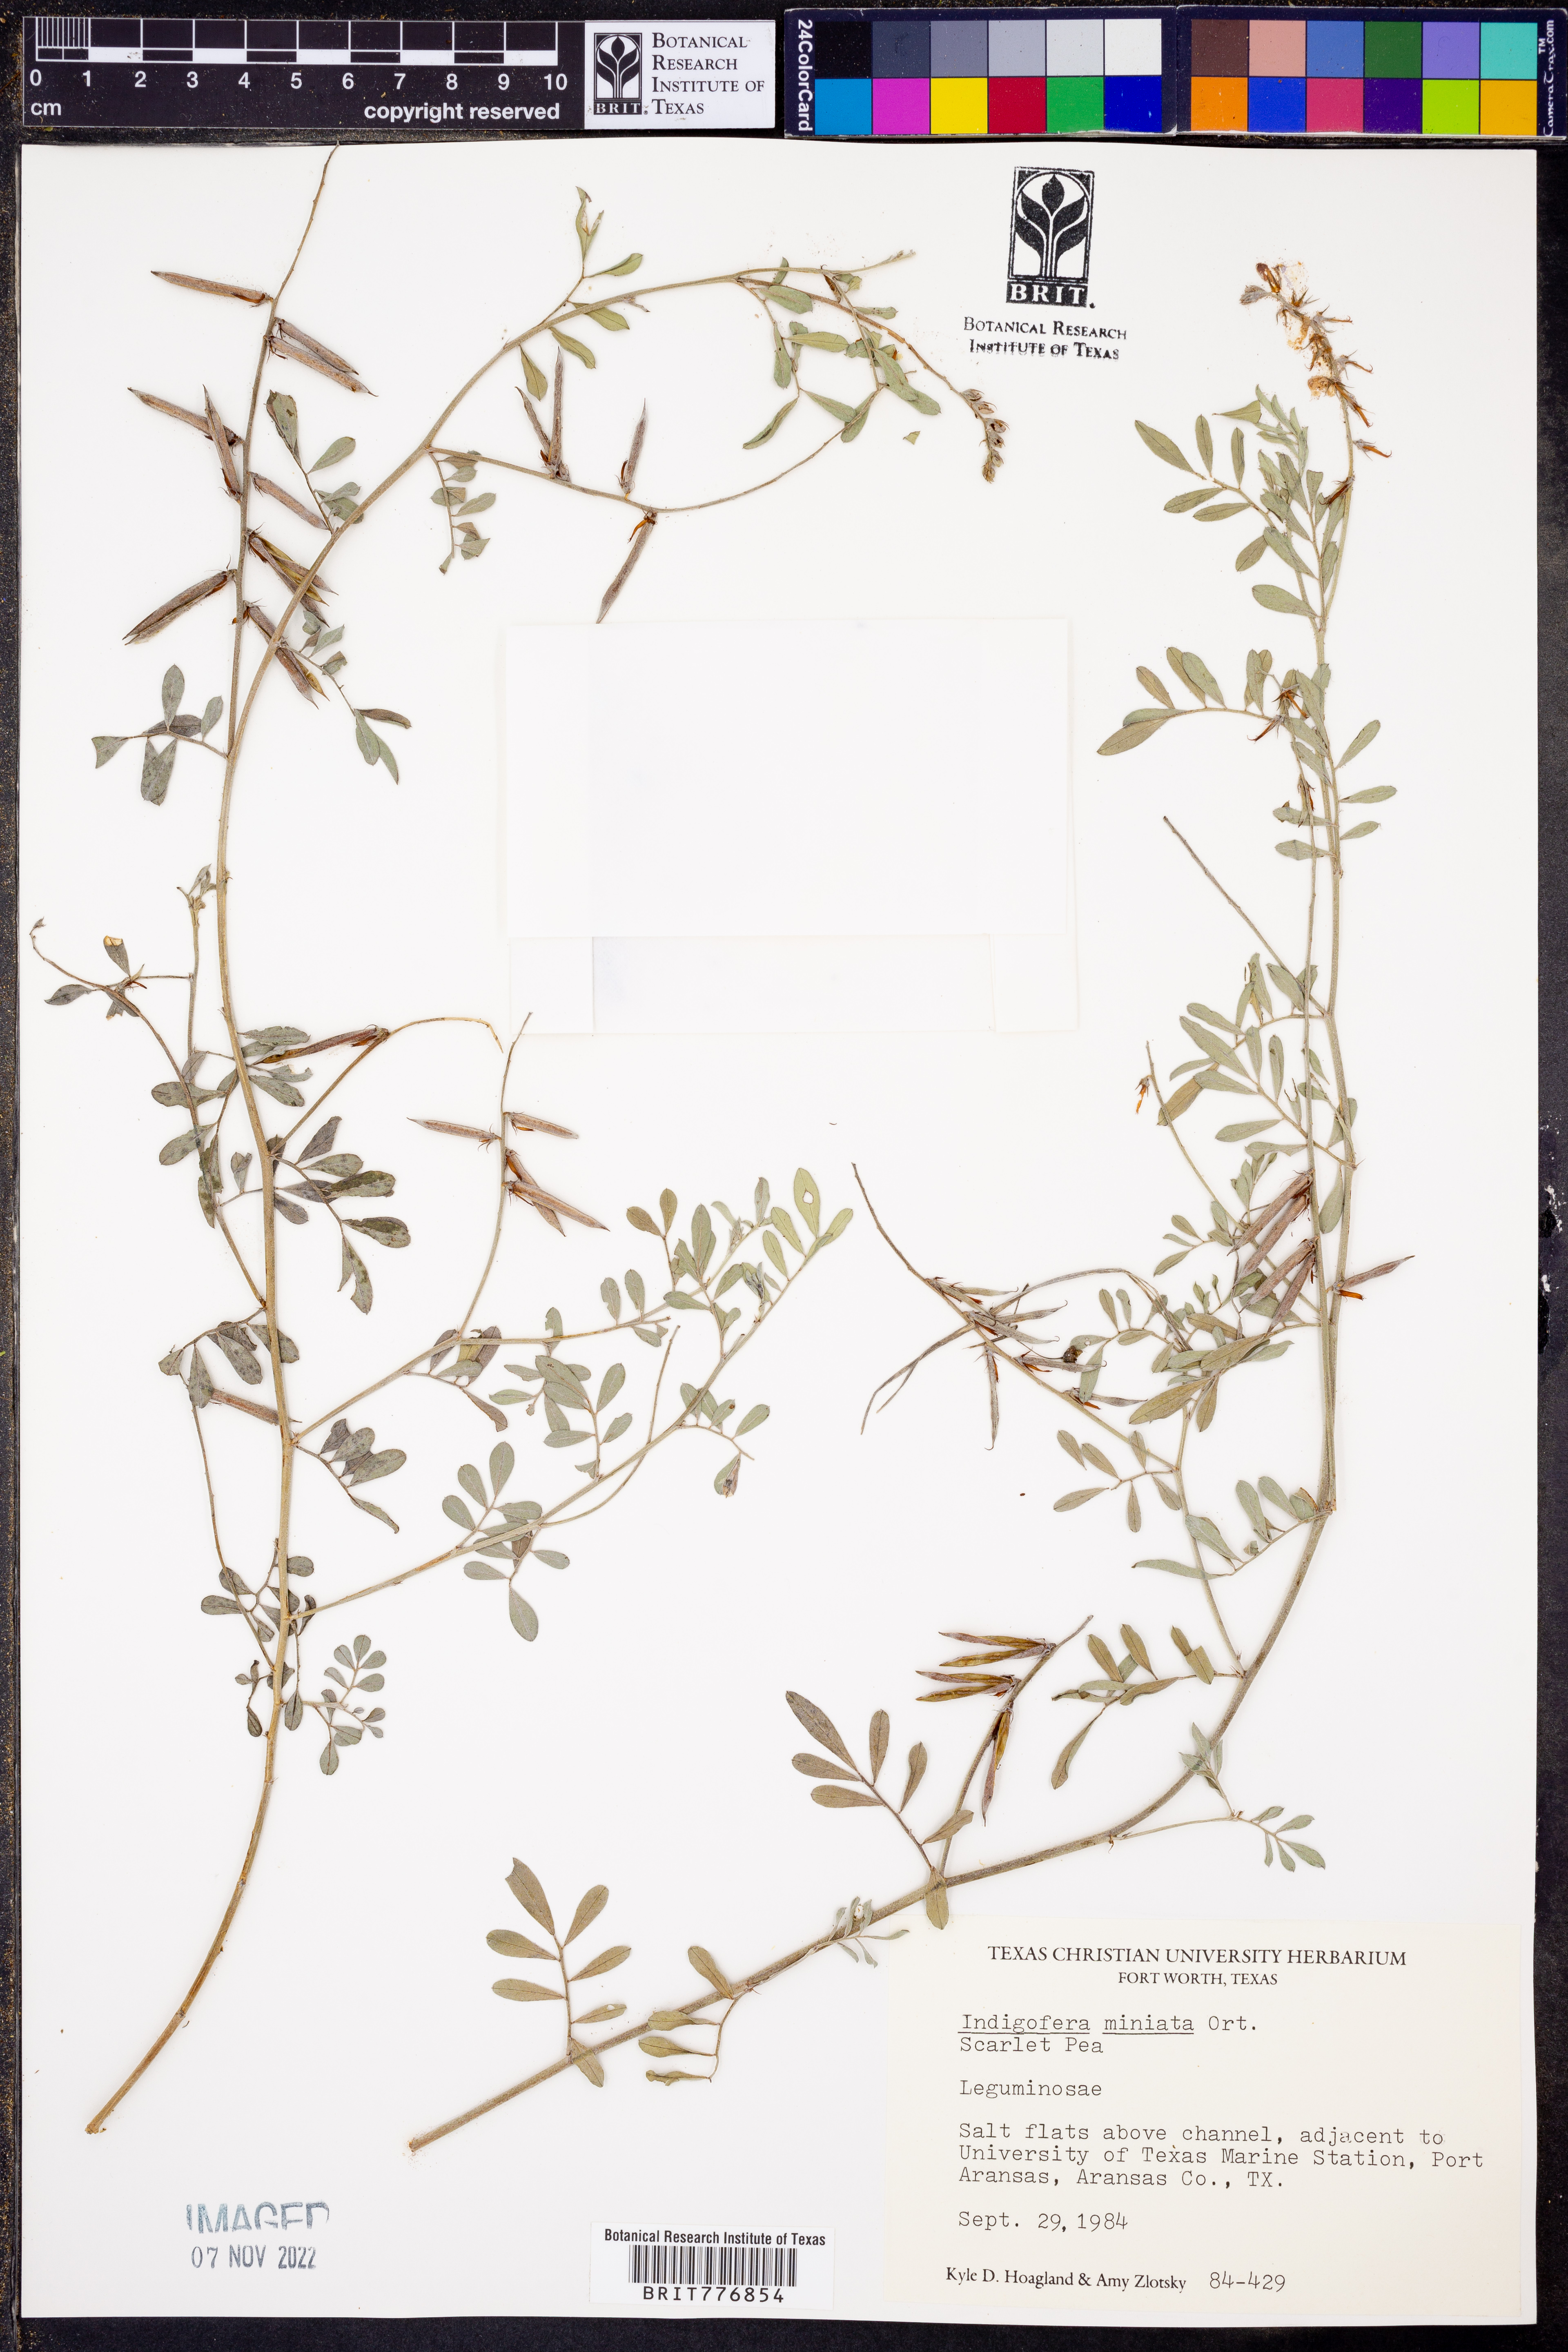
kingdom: Plantae
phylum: Tracheophyta
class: Magnoliopsida
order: Fabales
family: Fabaceae
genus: Indigofera
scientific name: Indigofera miniata
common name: Coast indigo
